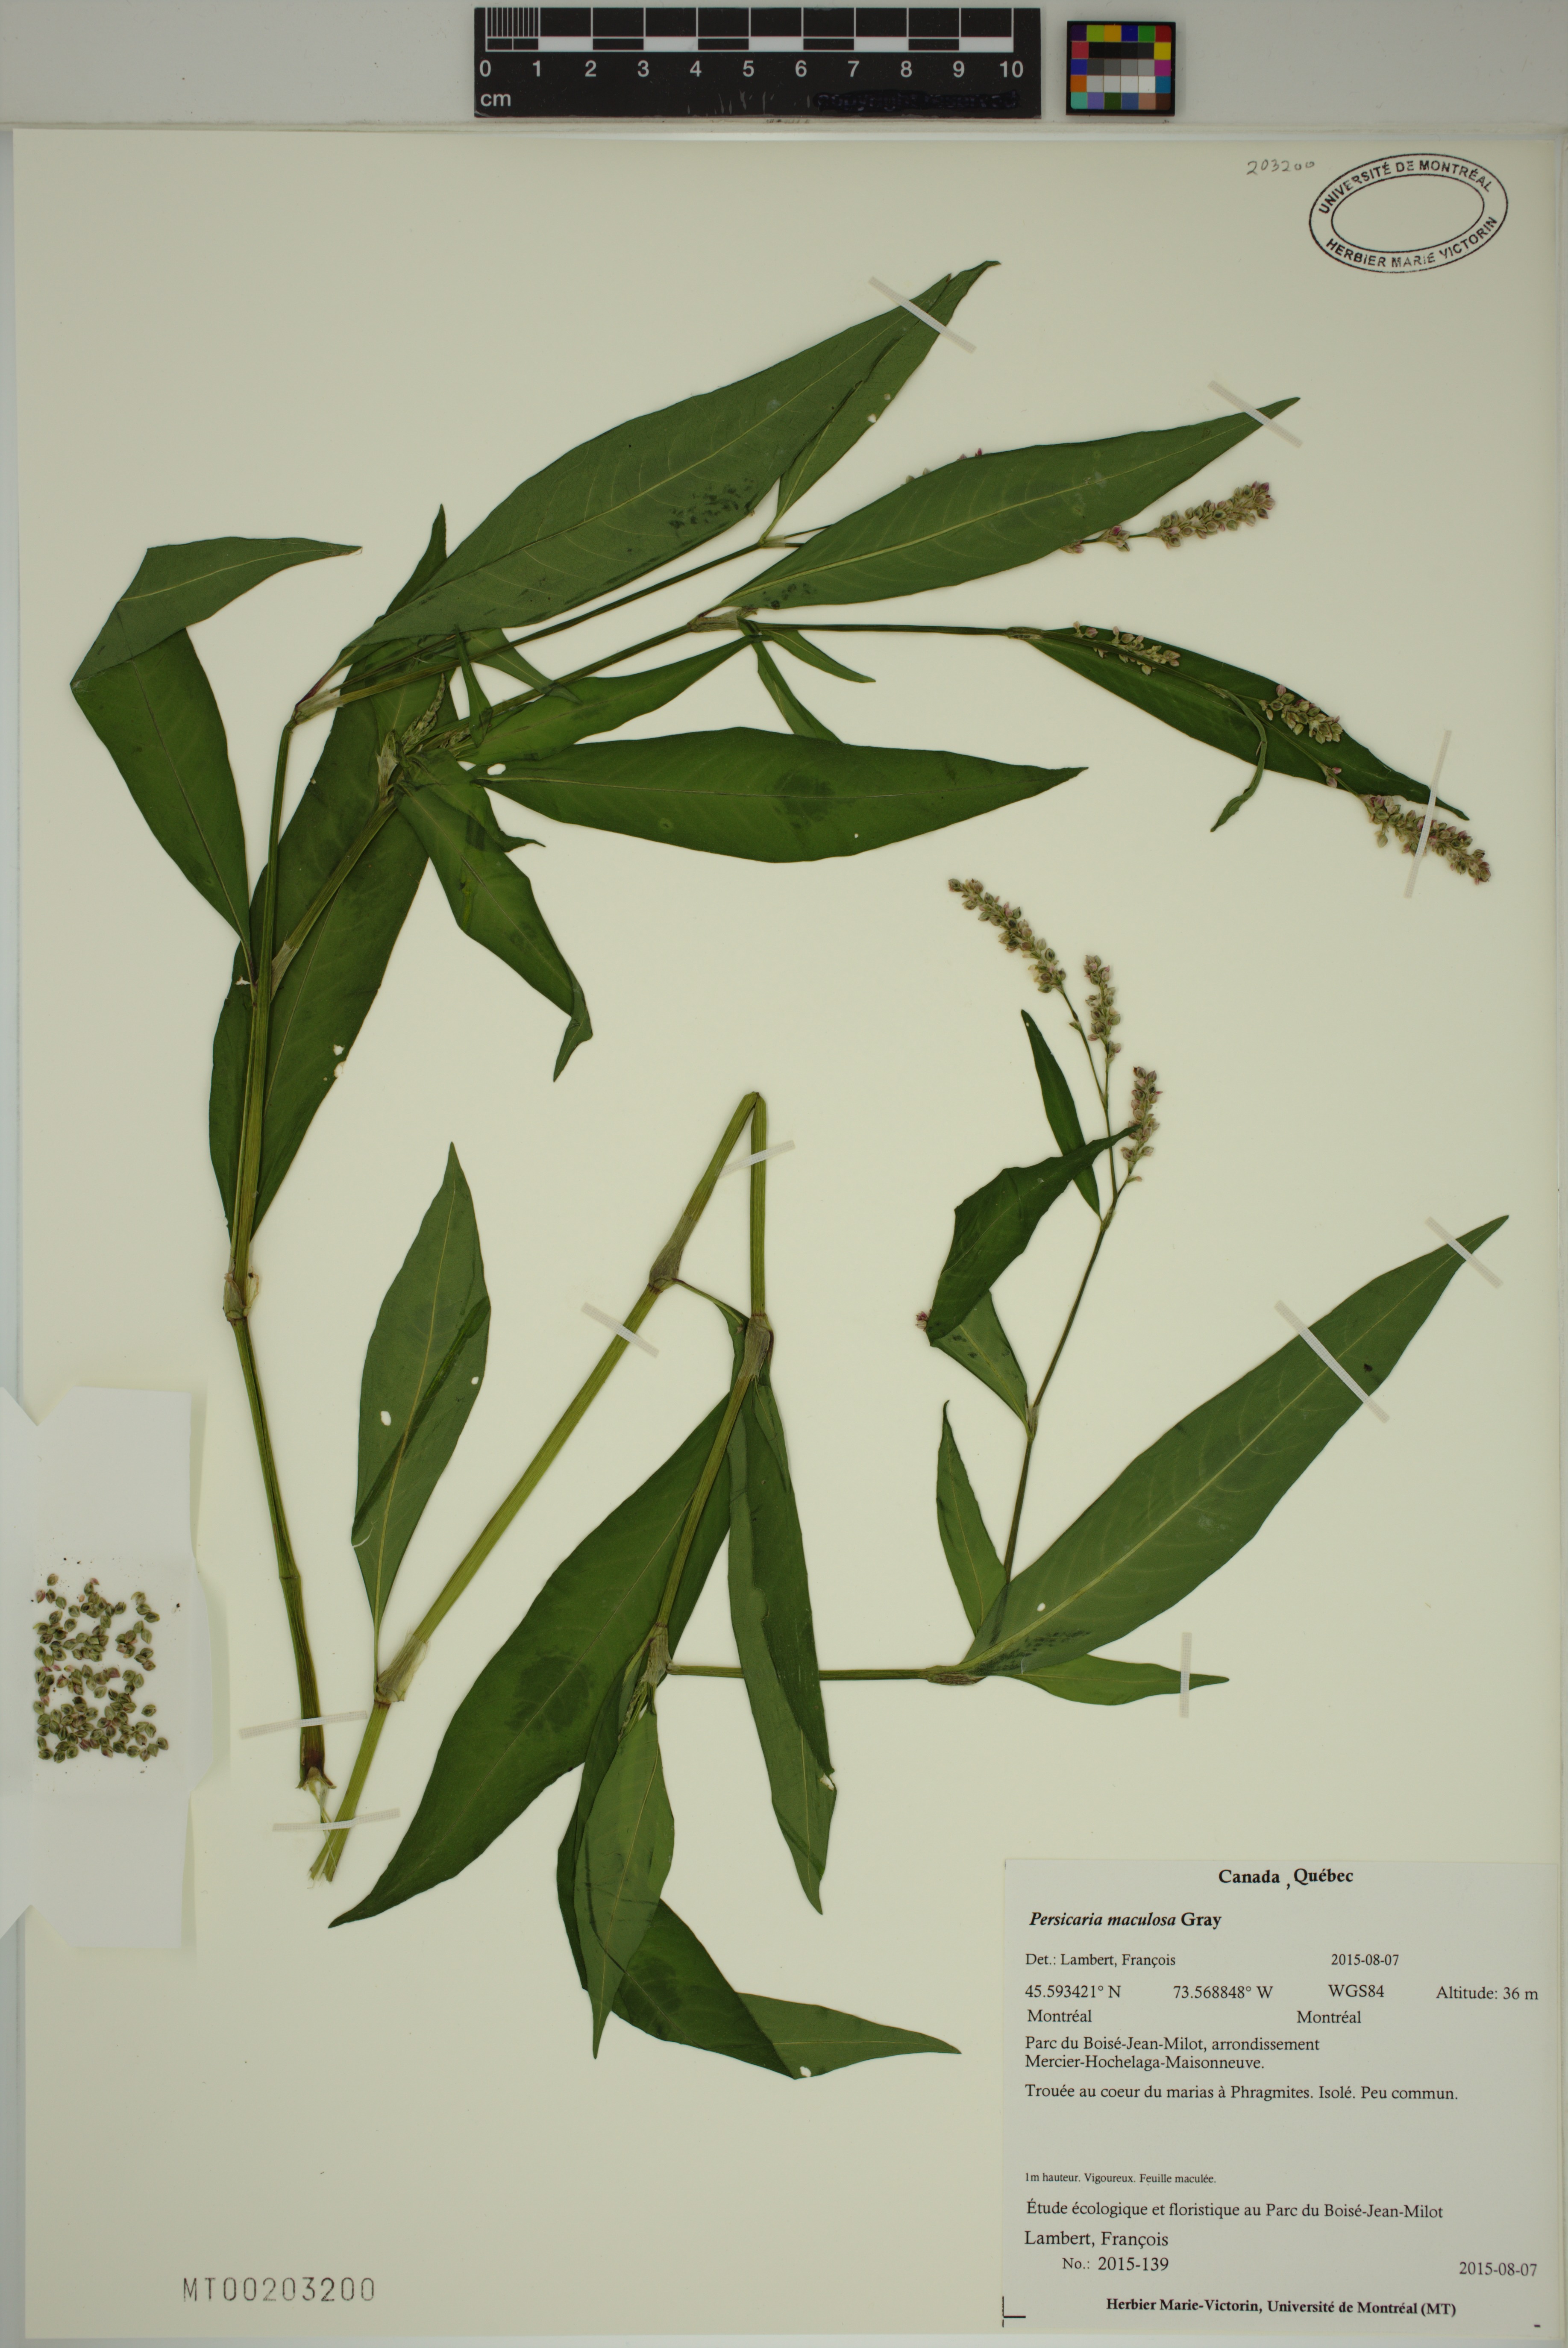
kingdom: Plantae
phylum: Tracheophyta
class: Magnoliopsida
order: Caryophyllales
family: Polygonaceae
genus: Persicaria
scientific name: Persicaria maculosa
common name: Redshank
